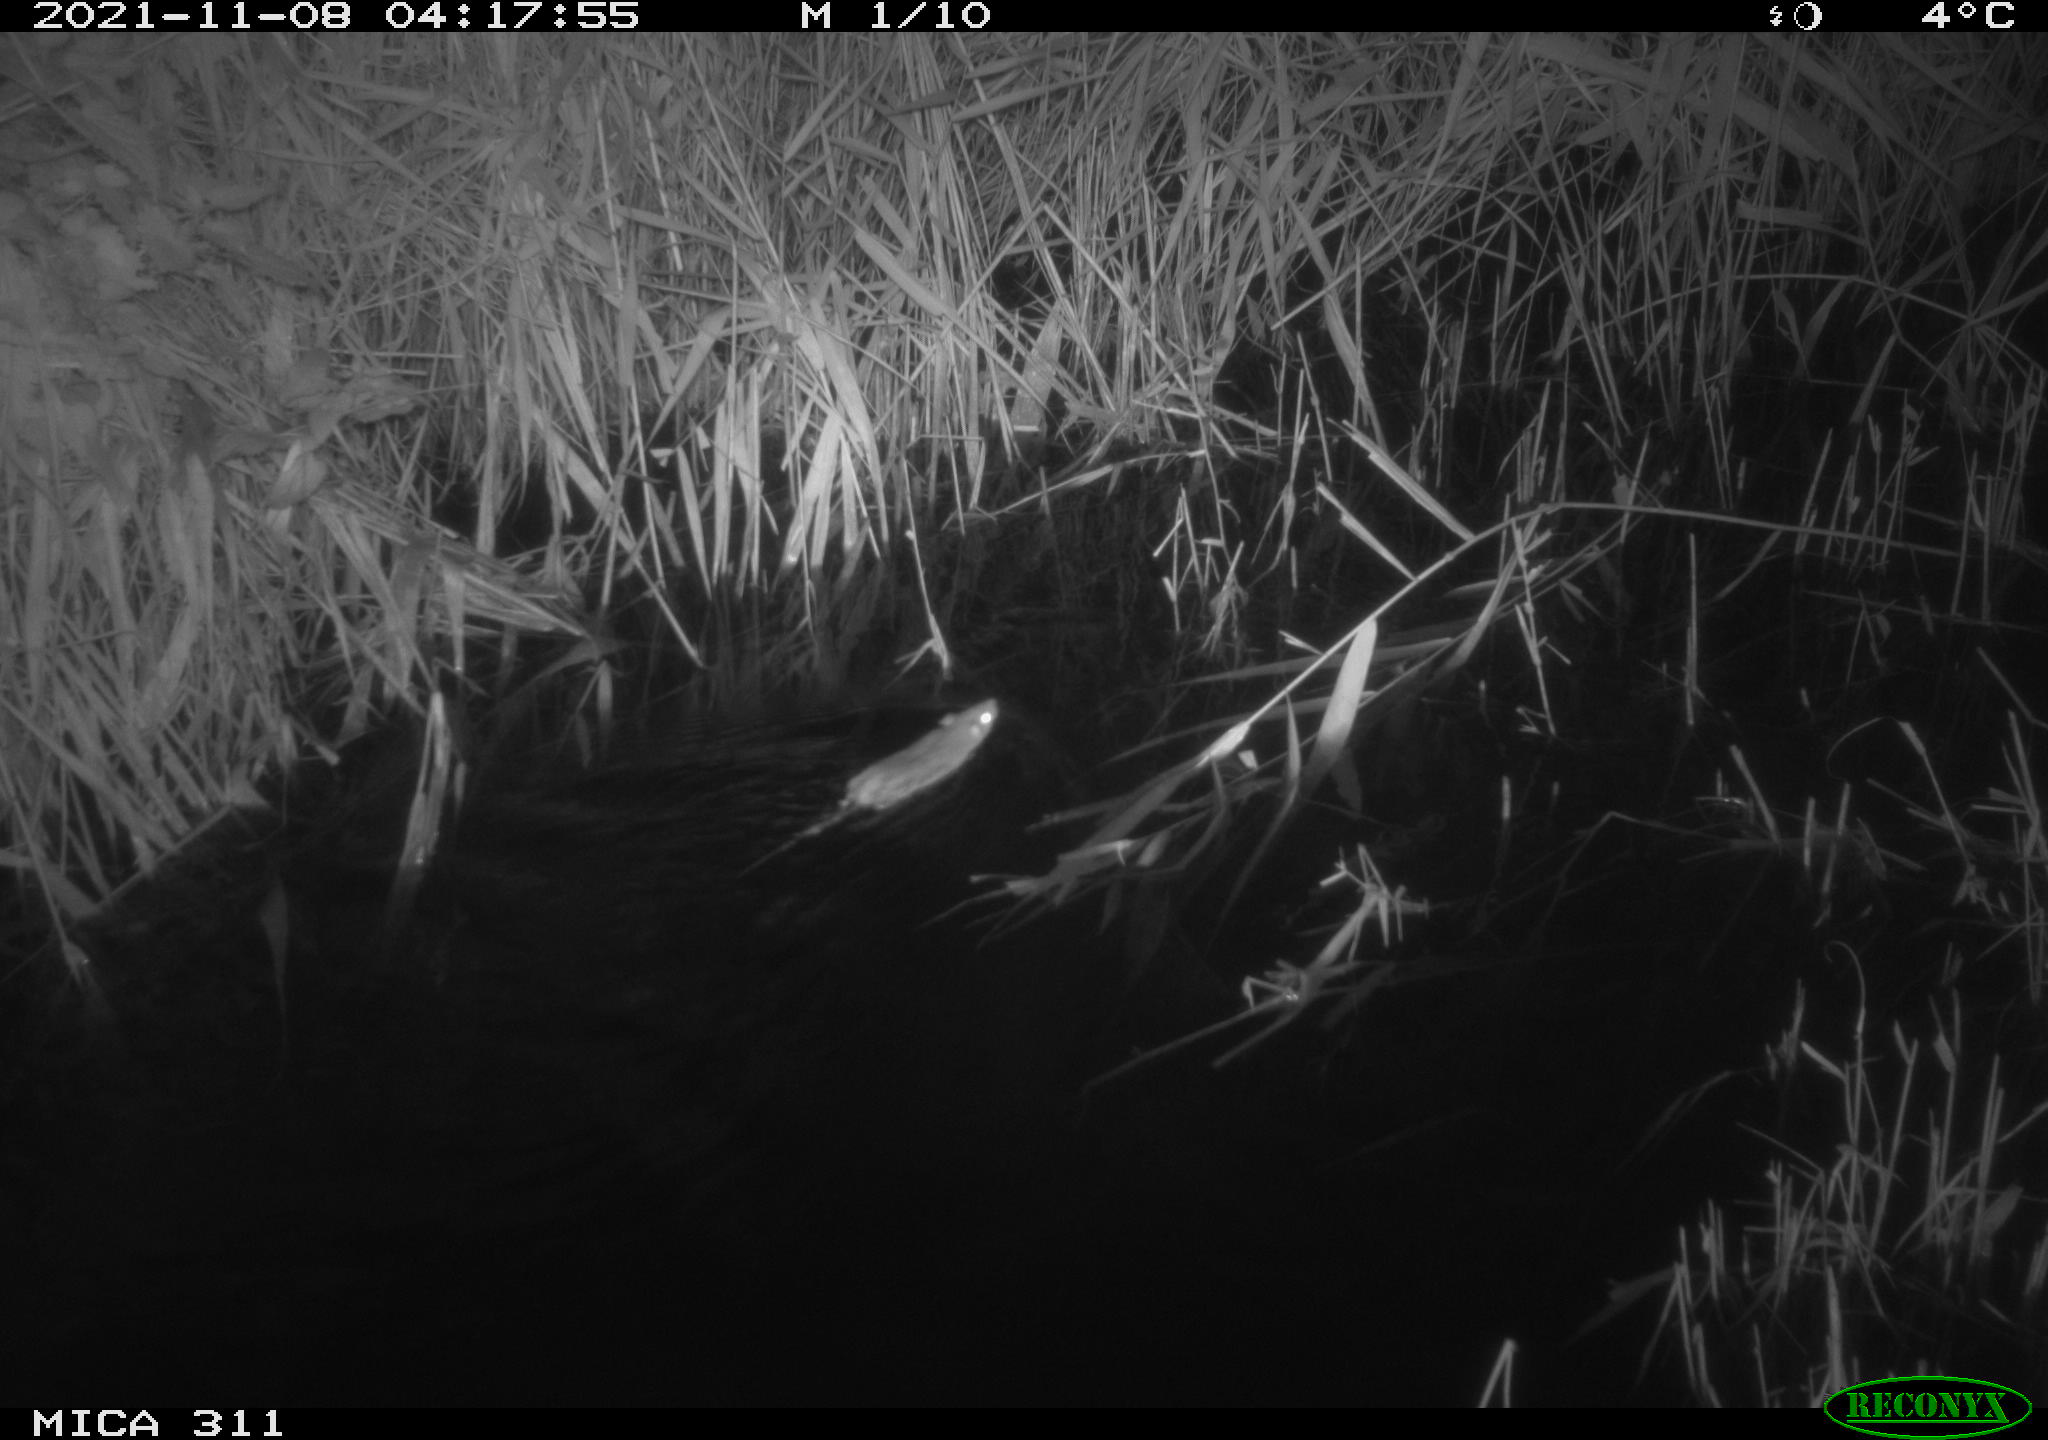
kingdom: Animalia
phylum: Chordata
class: Mammalia
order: Rodentia
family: Muridae
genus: Rattus
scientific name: Rattus norvegicus
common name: Brown rat
